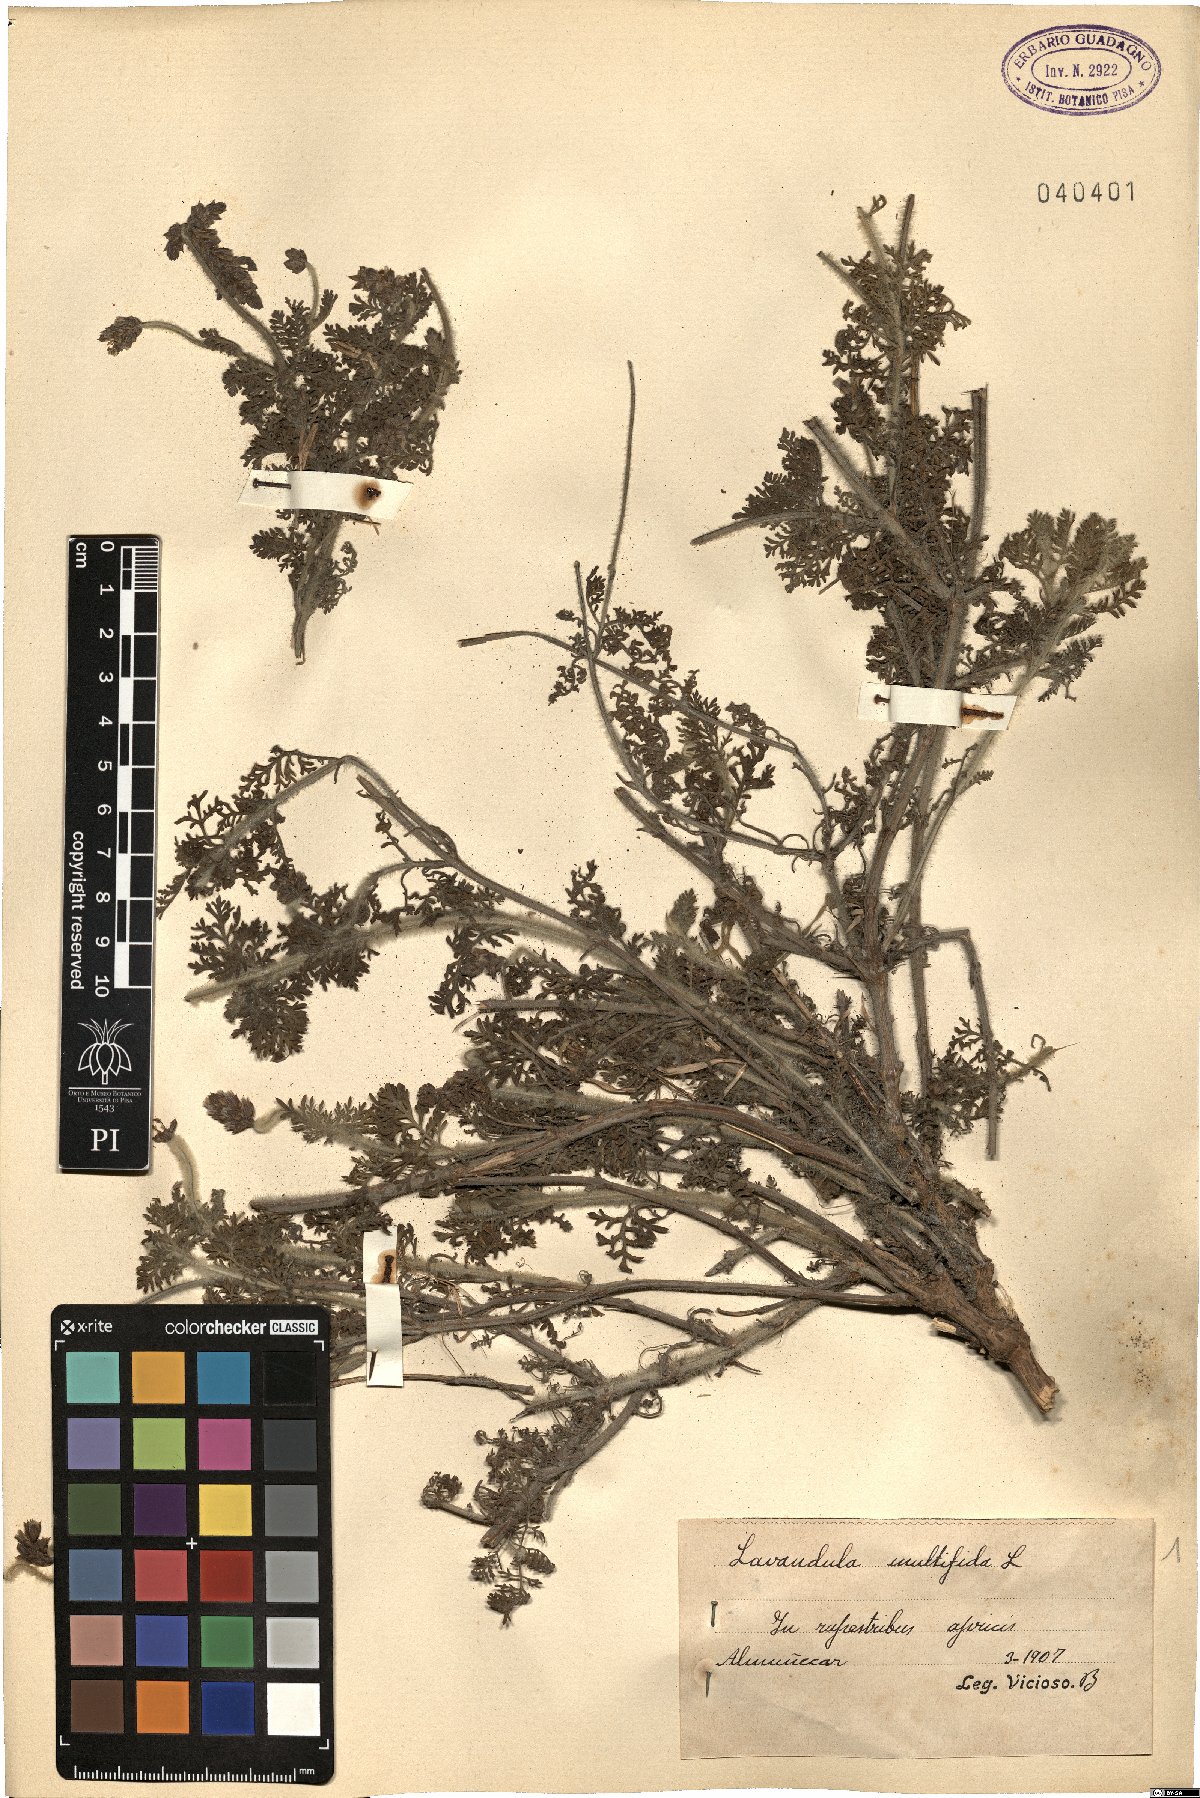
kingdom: Plantae
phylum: Tracheophyta
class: Magnoliopsida
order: Lamiales
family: Lamiaceae
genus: Lavandula
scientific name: Lavandula multifida
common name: Fern-leaf lavender
